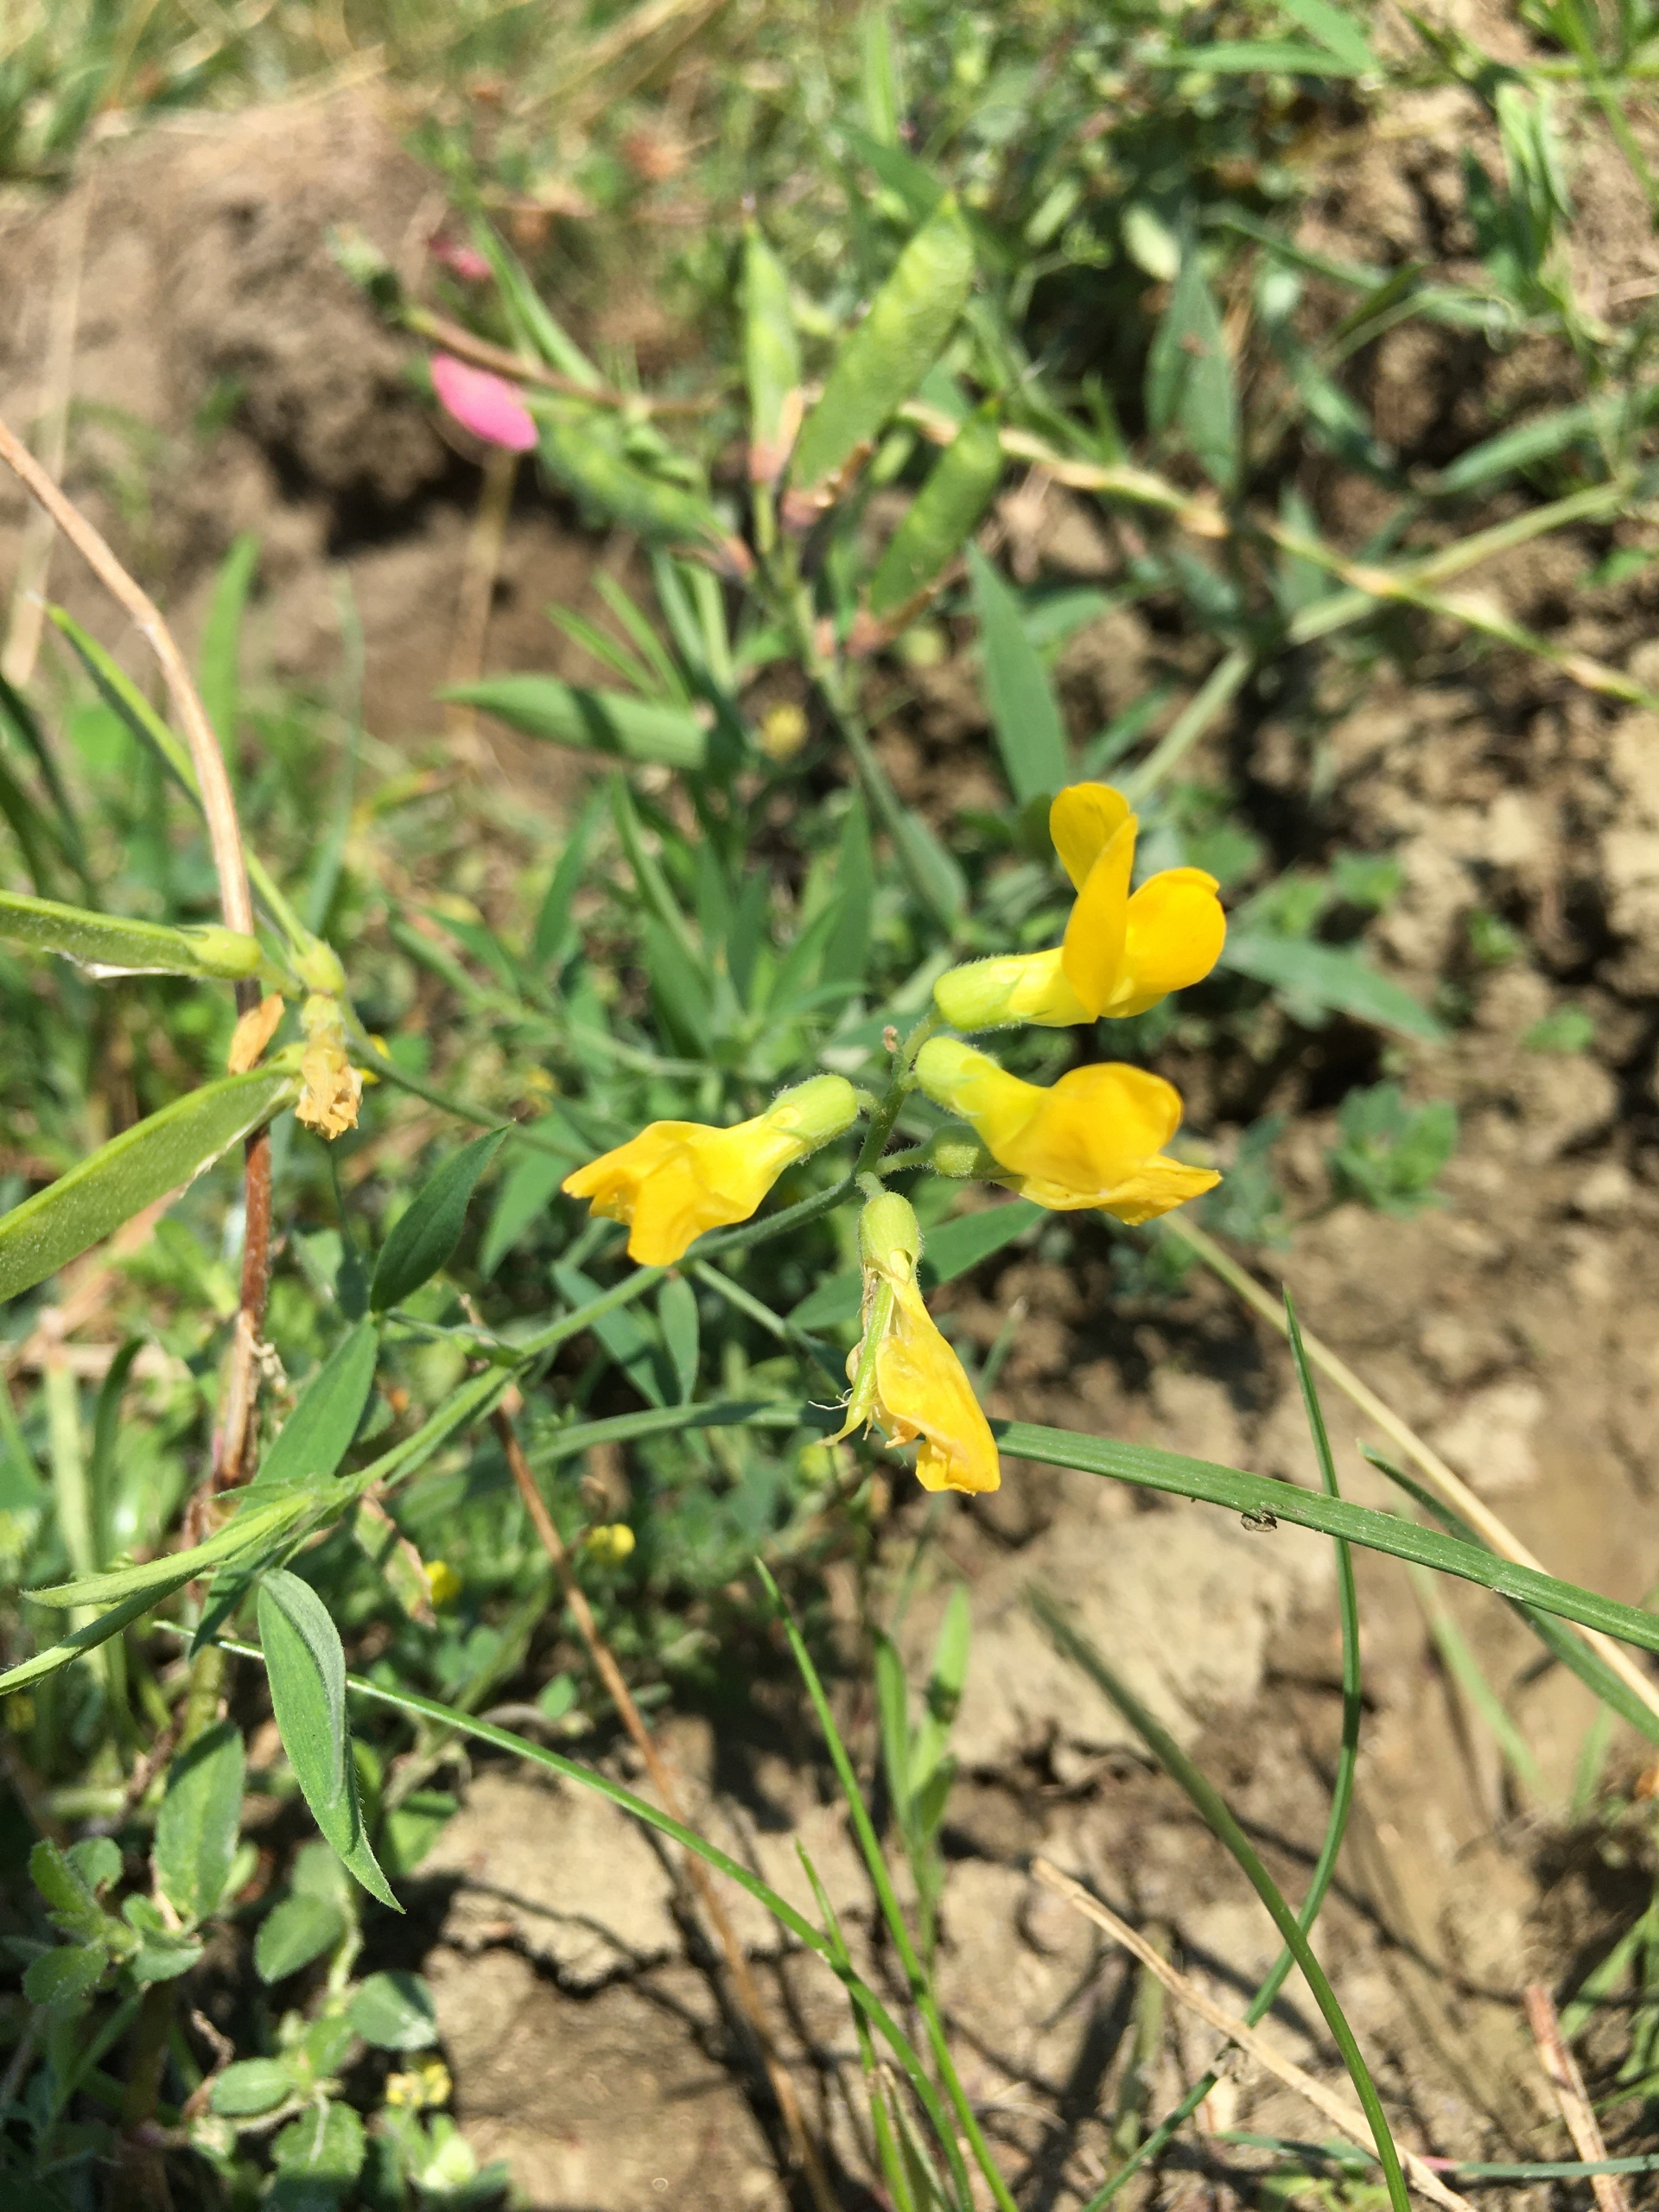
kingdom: Plantae
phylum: Tracheophyta
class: Magnoliopsida
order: Fabales
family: Fabaceae
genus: Lathyrus
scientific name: Lathyrus pratensis
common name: Gul fladbælg
